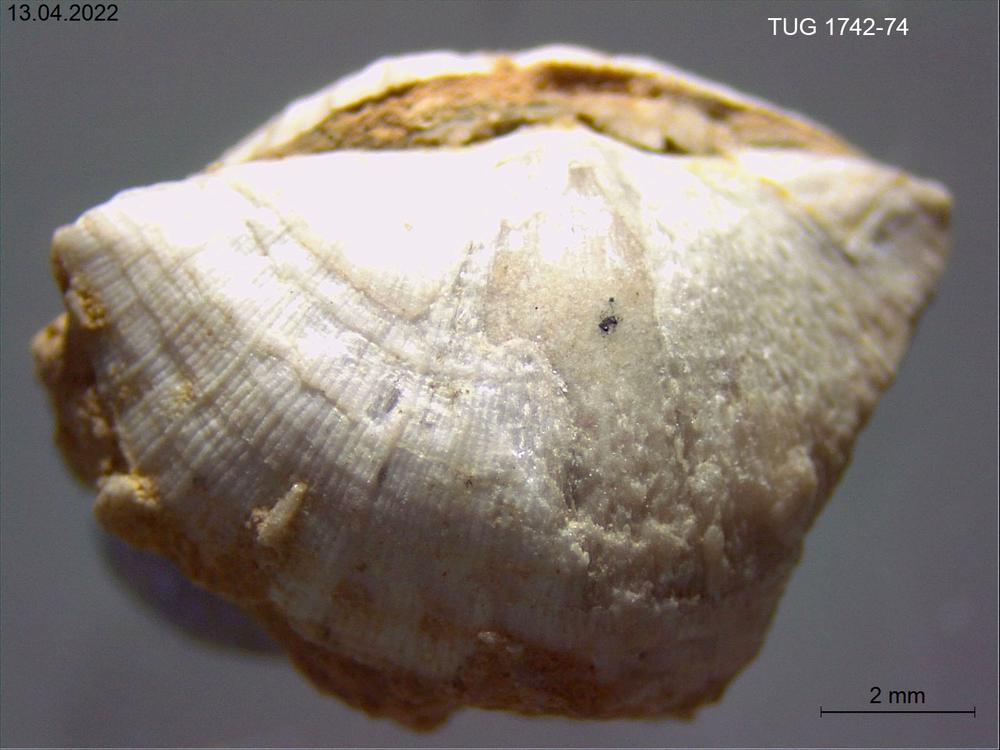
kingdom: Animalia
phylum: Brachiopoda
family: Sowerbyellidae
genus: Sowerbyella
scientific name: Sowerbyella
